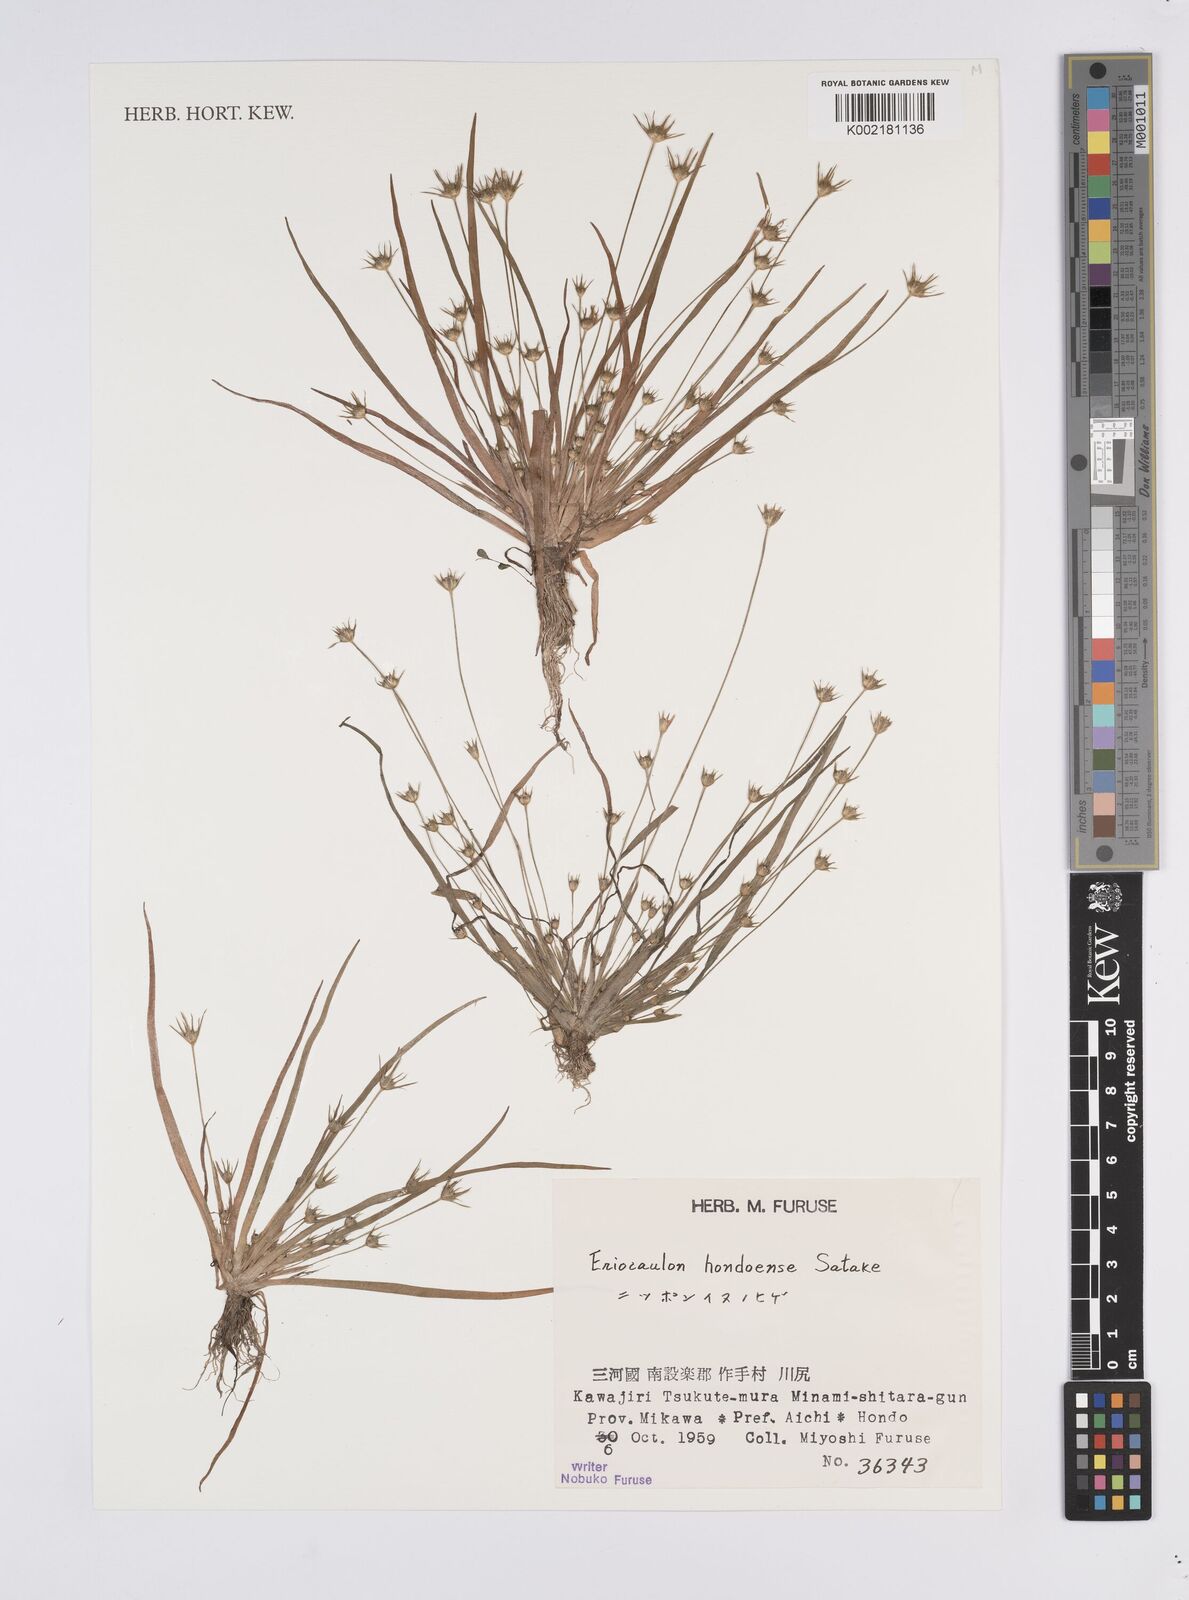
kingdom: Plantae
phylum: Tracheophyta
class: Liliopsida
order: Poales
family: Eriocaulaceae
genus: Eriocaulon
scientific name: Eriocaulon taquetii
